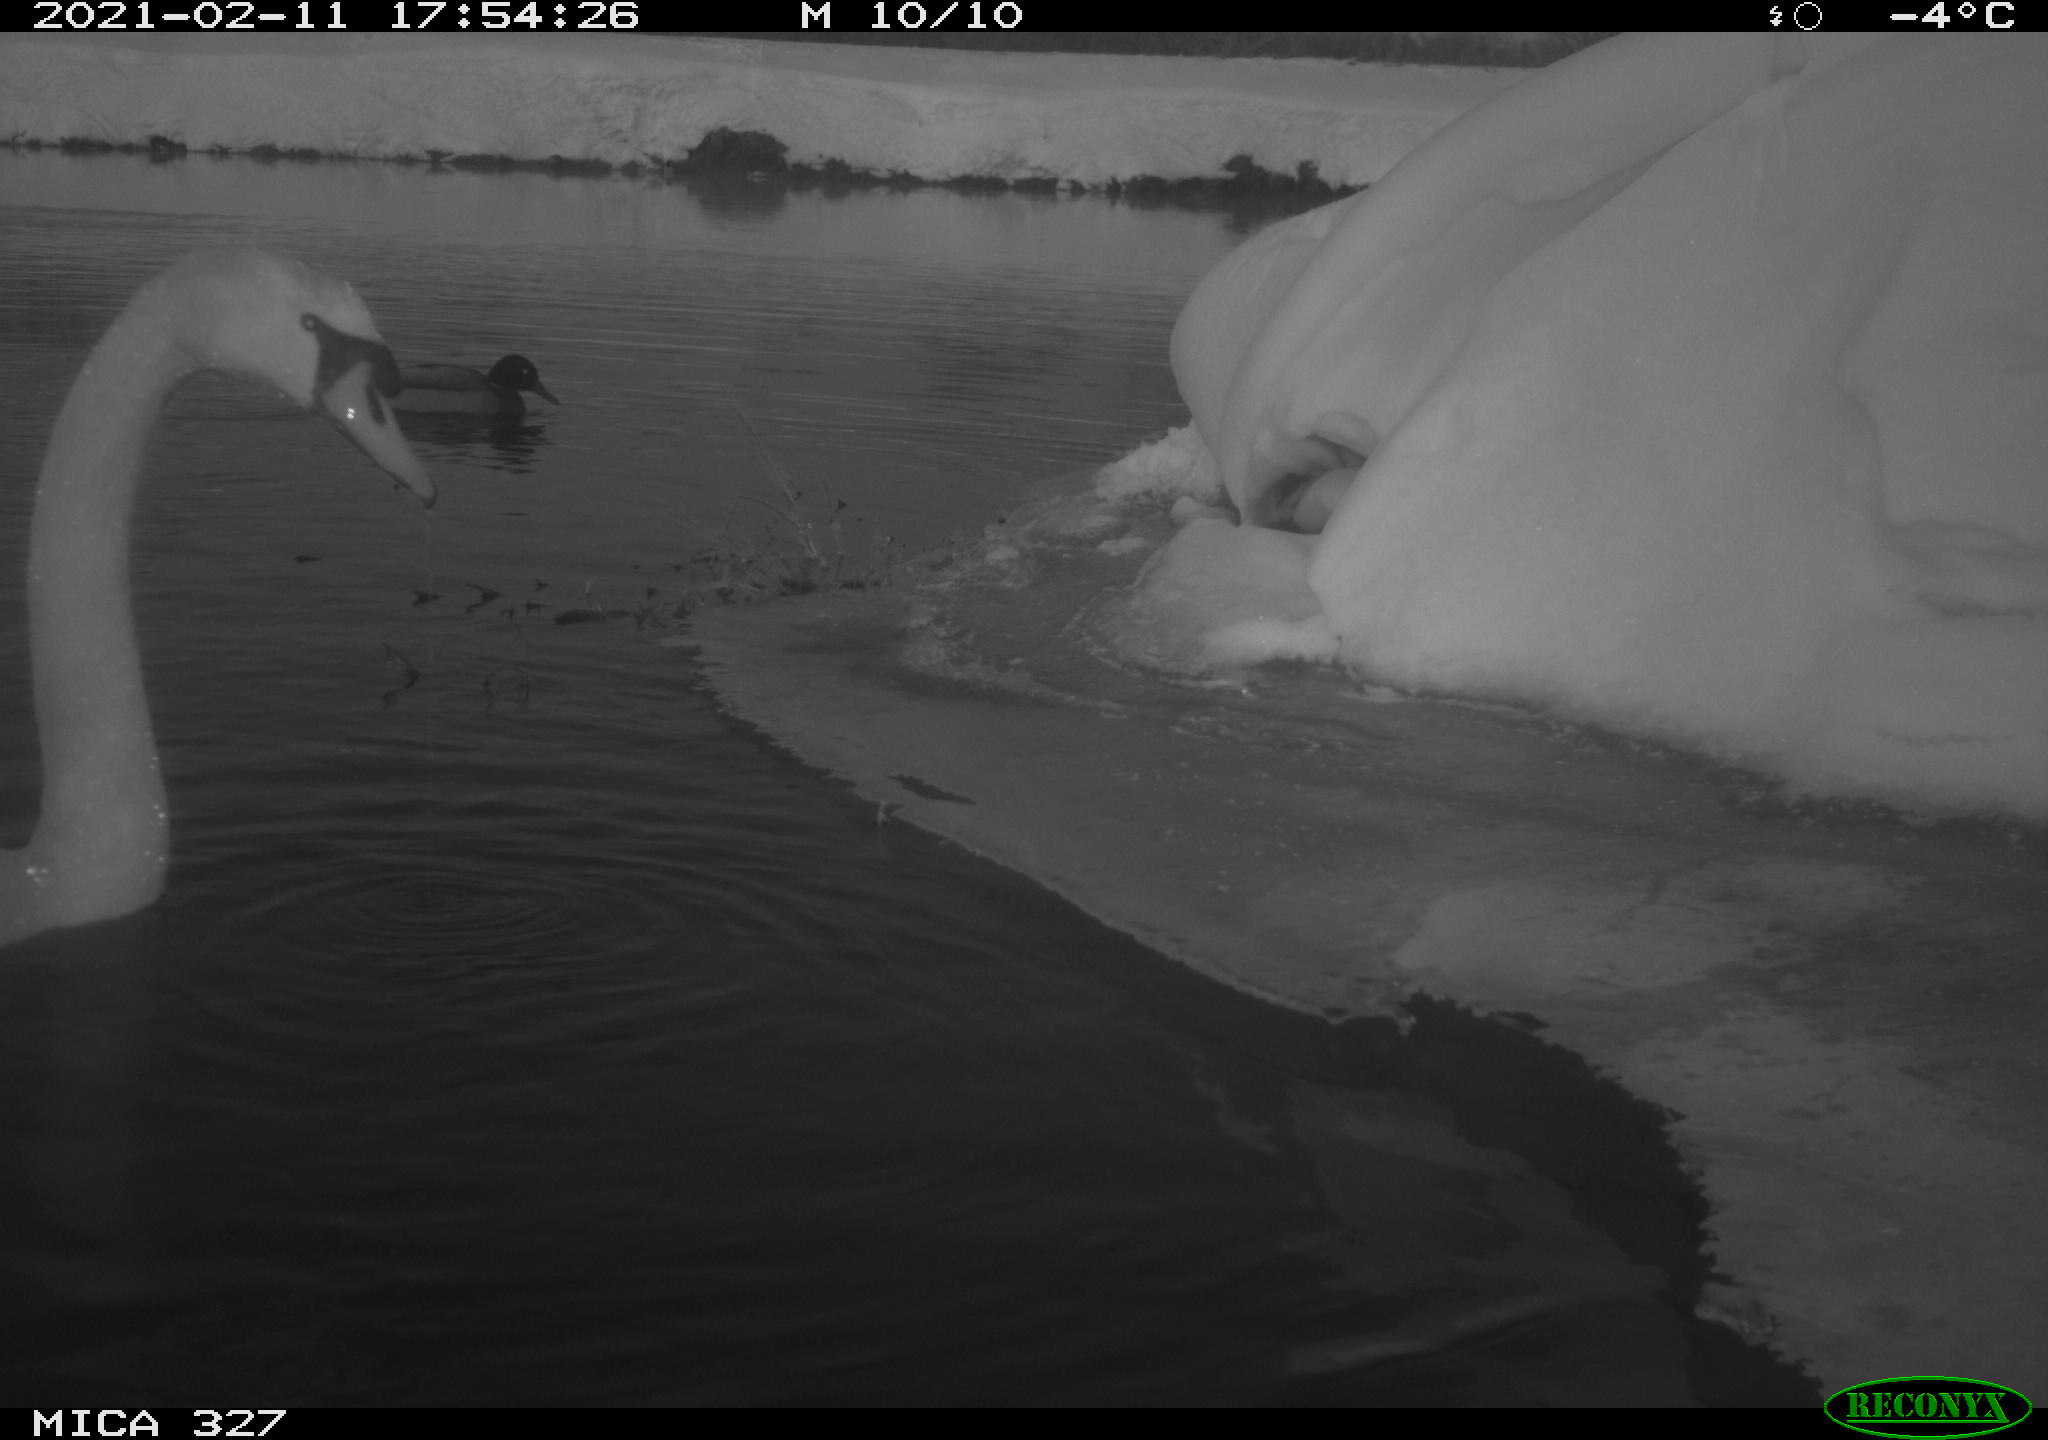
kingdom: Animalia
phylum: Chordata
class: Aves
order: Anseriformes
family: Anatidae
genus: Anas
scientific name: Anas platyrhynchos
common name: Mallard
